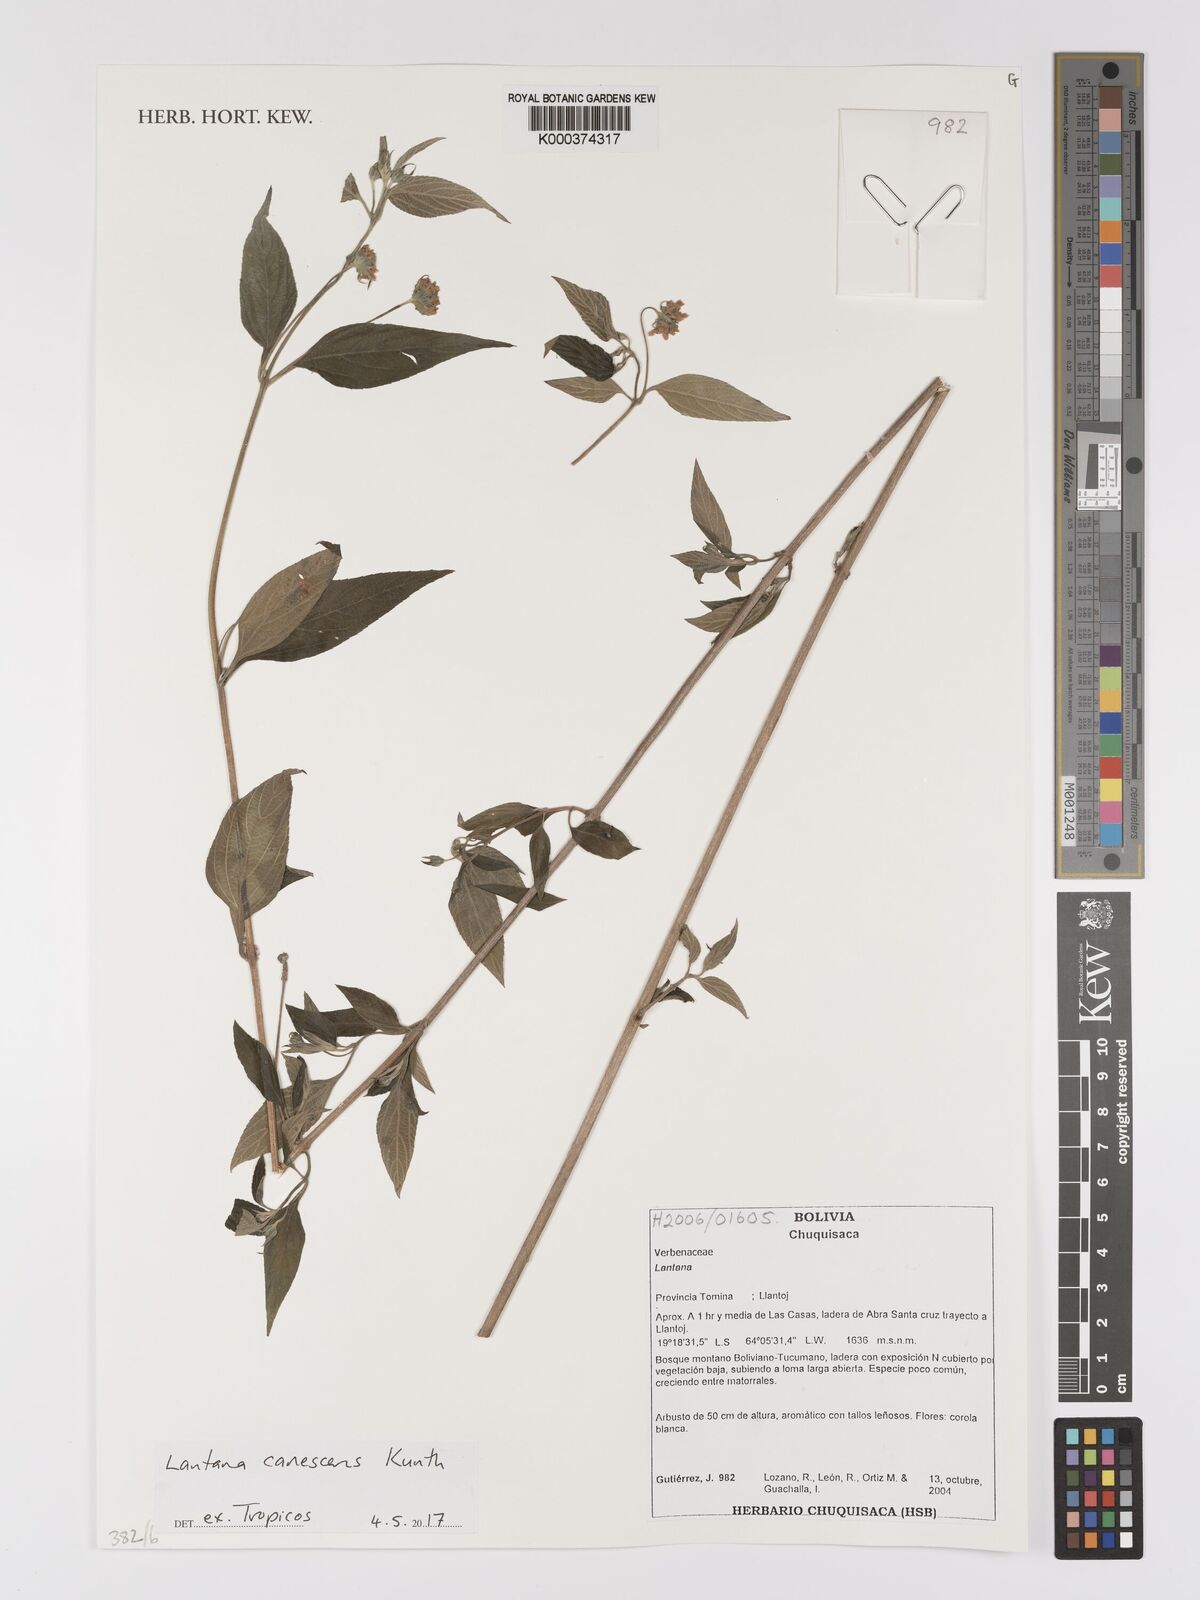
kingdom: Plantae
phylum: Tracheophyta
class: Magnoliopsida
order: Lamiales
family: Verbenaceae
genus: Lantana
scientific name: Lantana canescens
